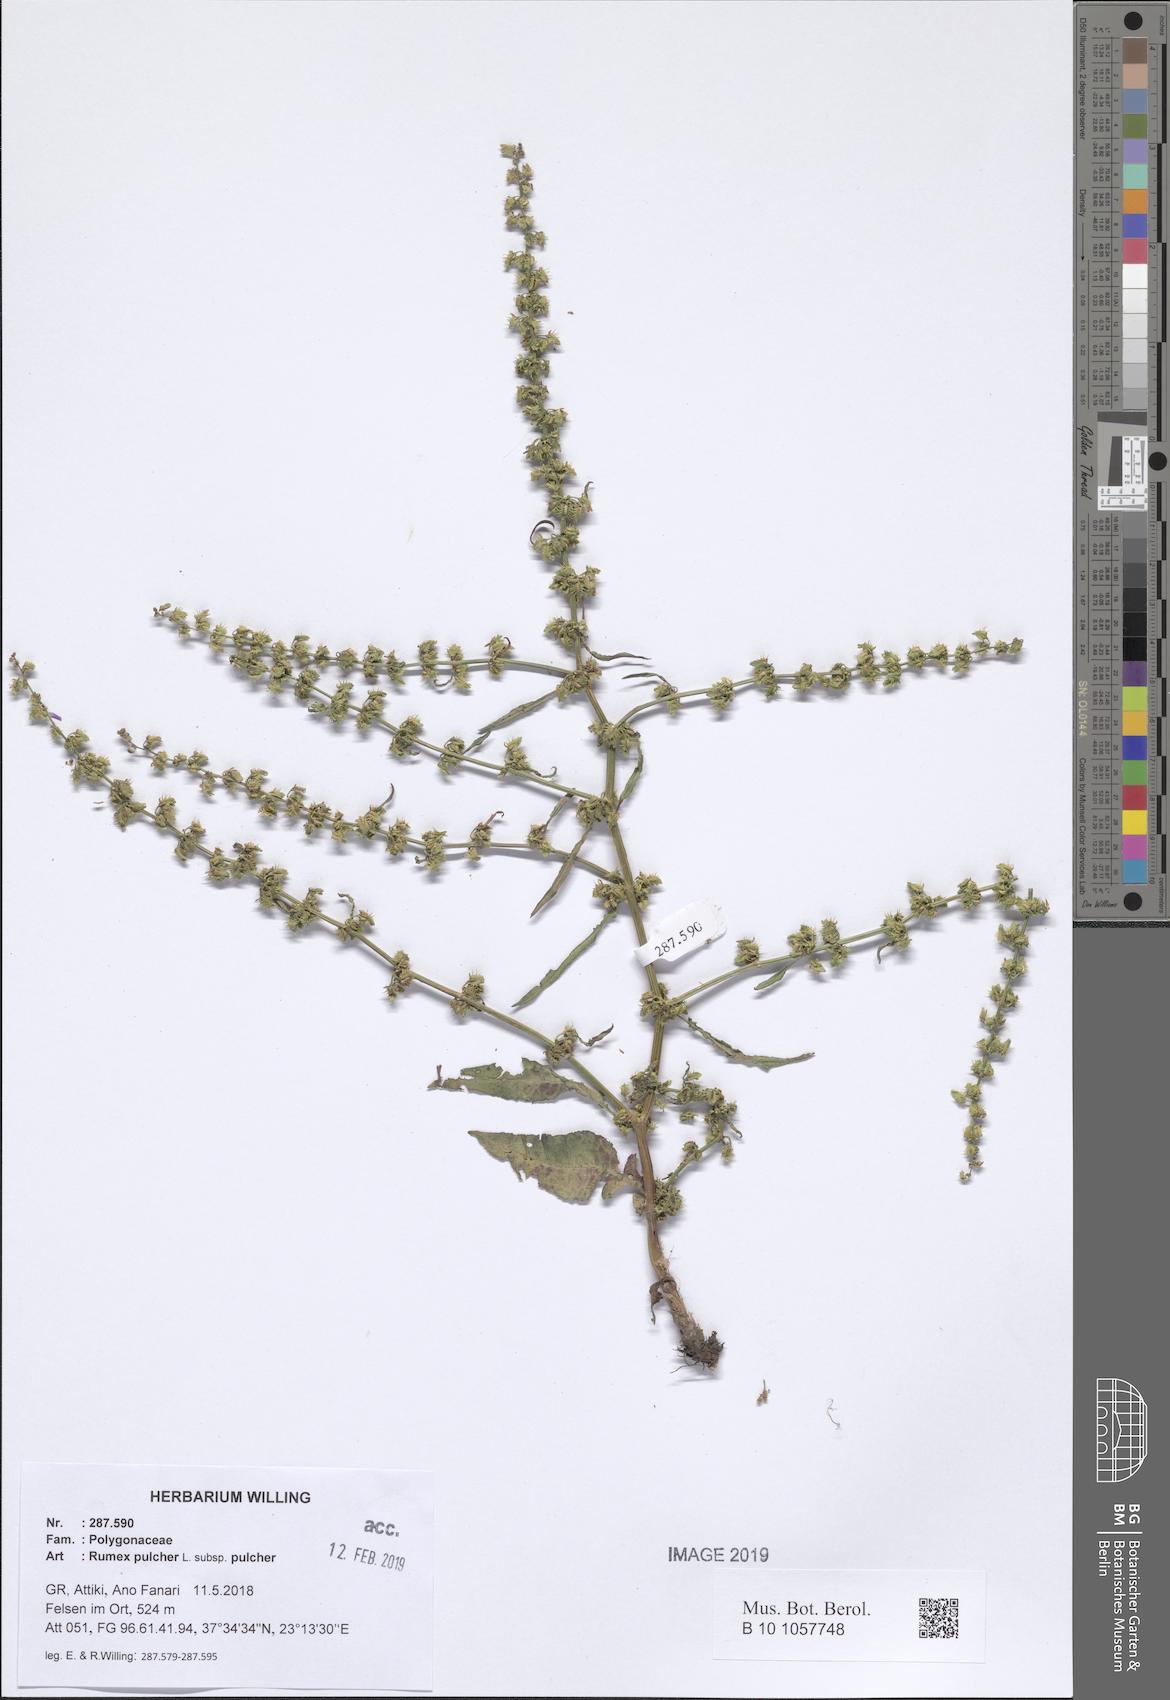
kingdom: Plantae
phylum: Tracheophyta
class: Magnoliopsida
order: Caryophyllales
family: Polygonaceae
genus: Rumex
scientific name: Rumex pulcher
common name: Fiddle dock
